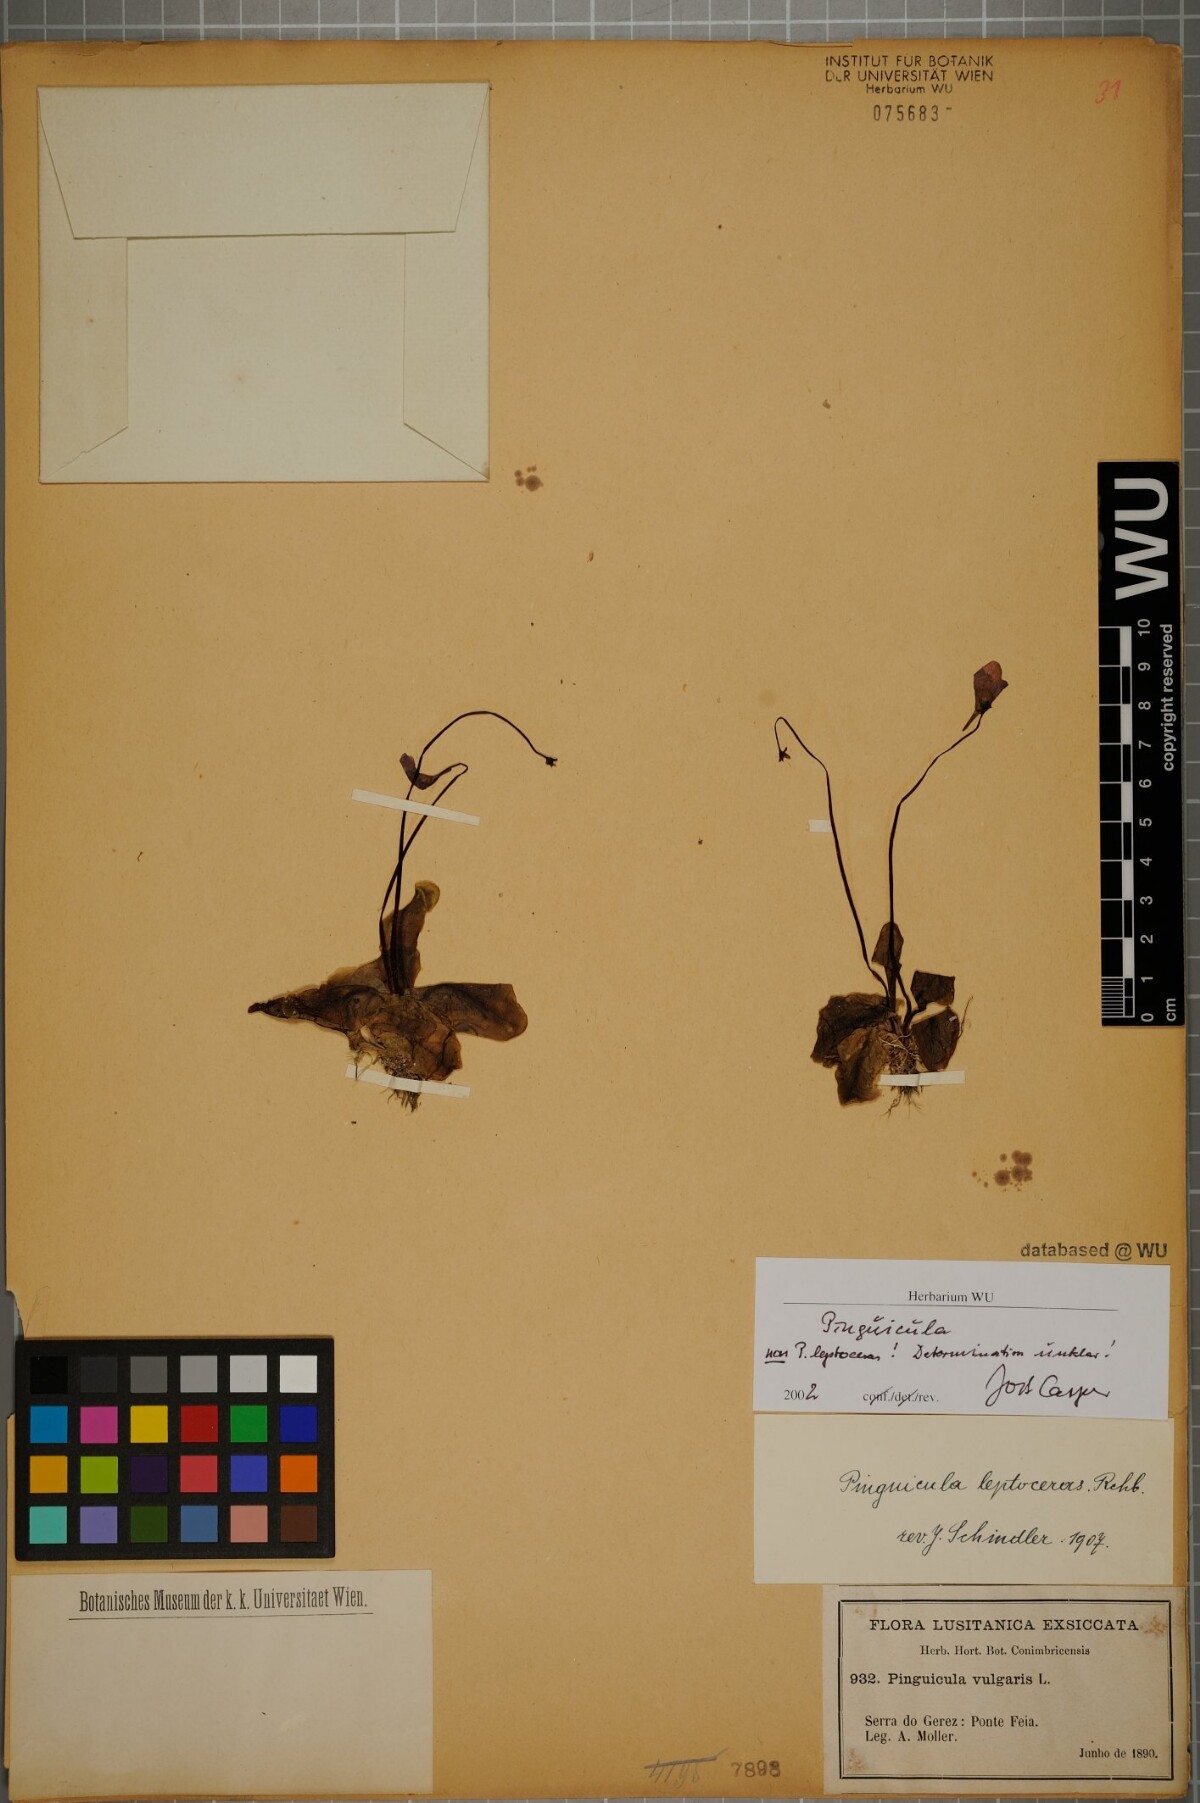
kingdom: Plantae
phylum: Tracheophyta
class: Magnoliopsida
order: Lamiales
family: Lentibulariaceae
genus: Pinguicula
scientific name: Pinguicula
